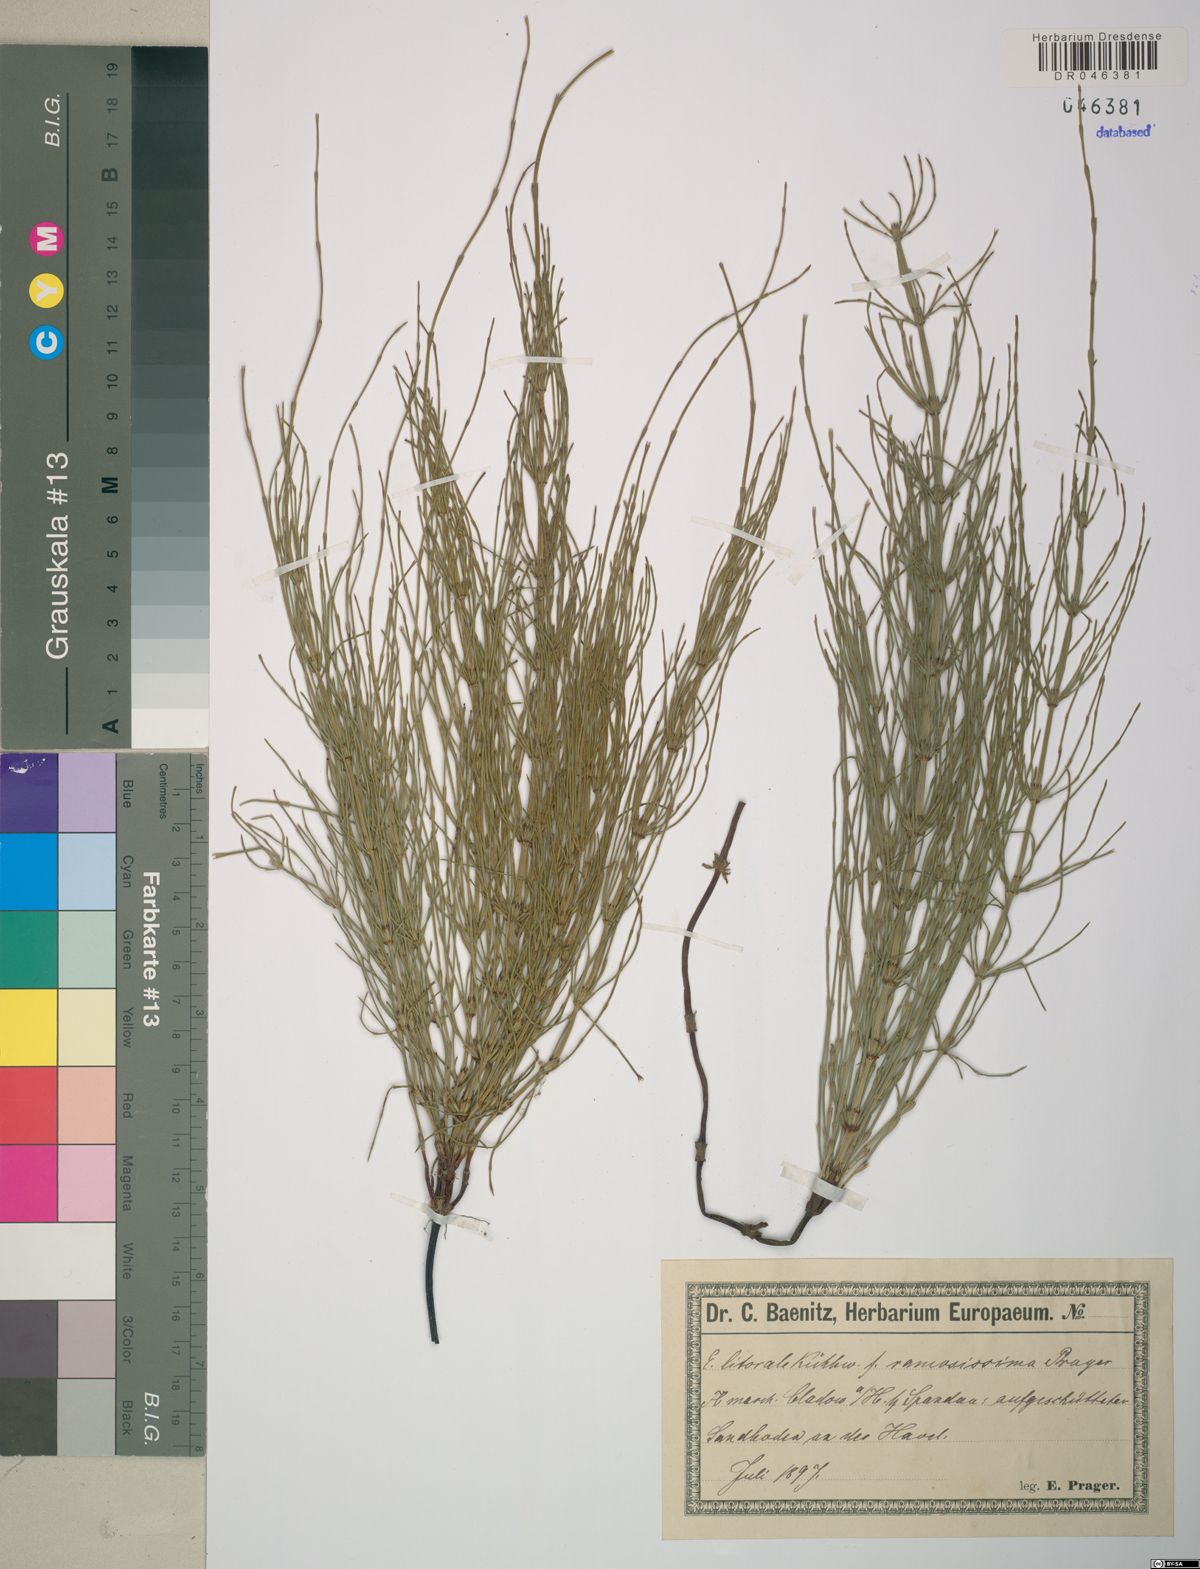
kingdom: Plantae
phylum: Tracheophyta
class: Polypodiopsida
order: Equisetales
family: Equisetaceae
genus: Equisetum
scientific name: Equisetum litorale
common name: Littoral horsetail
